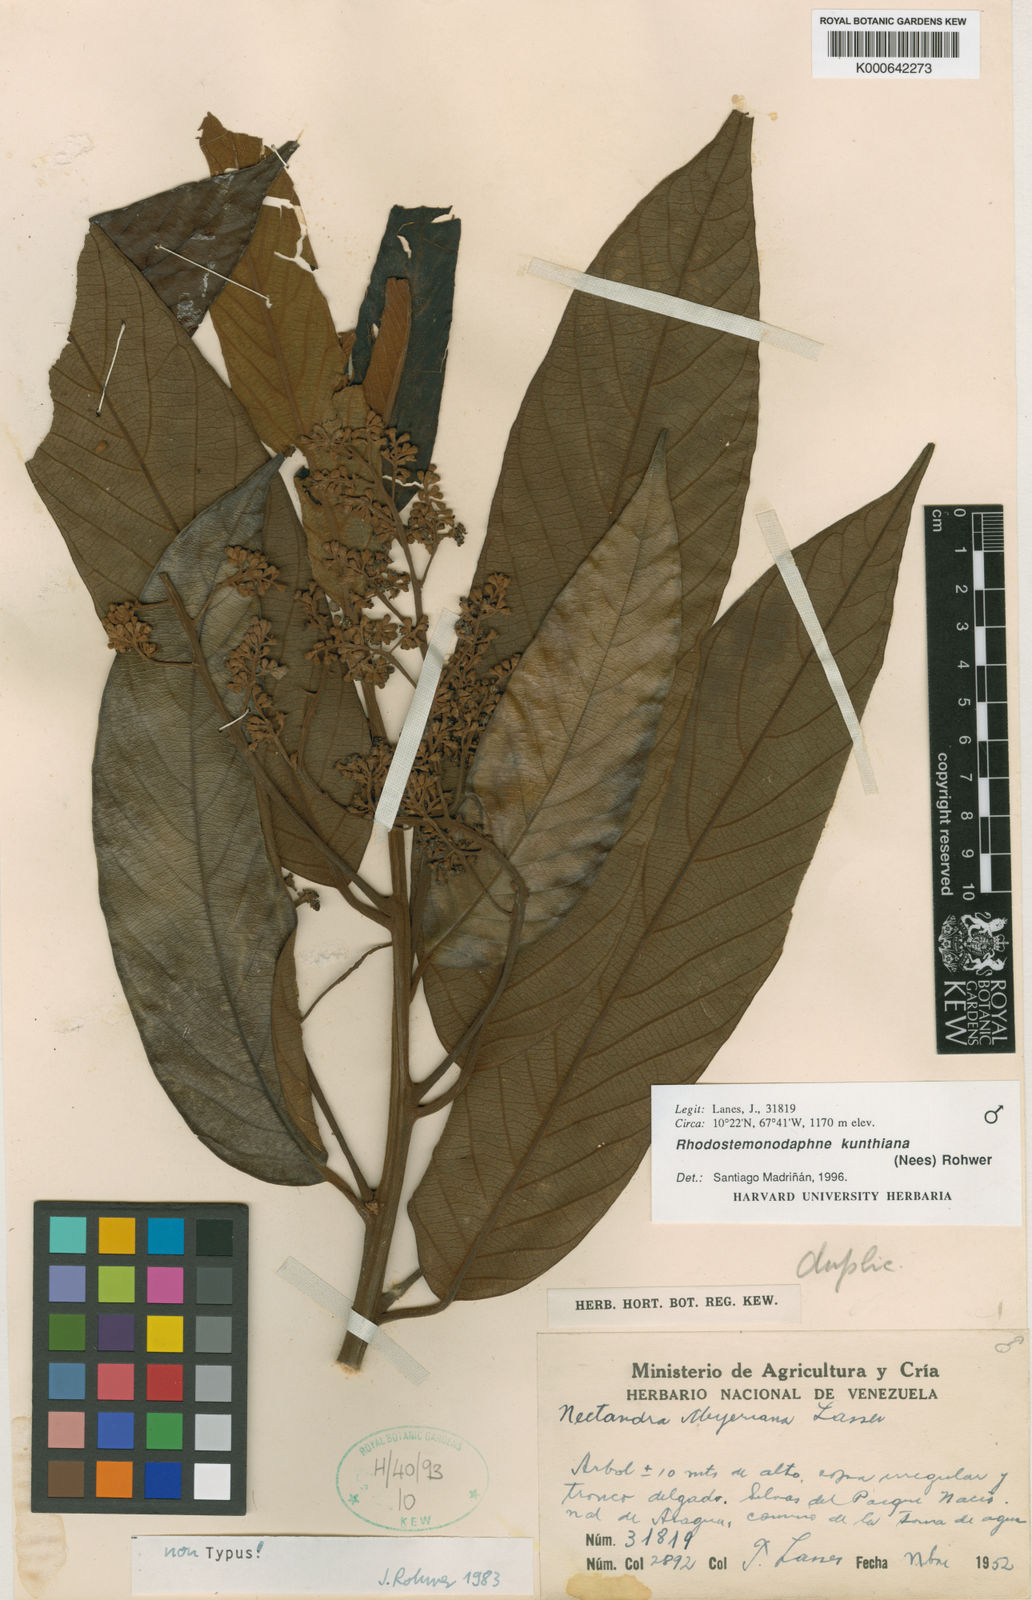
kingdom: Plantae
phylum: Tracheophyta
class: Magnoliopsida
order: Laurales
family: Lauraceae
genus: Rhodostemonodaphne
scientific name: Rhodostemonodaphne kunthiana
